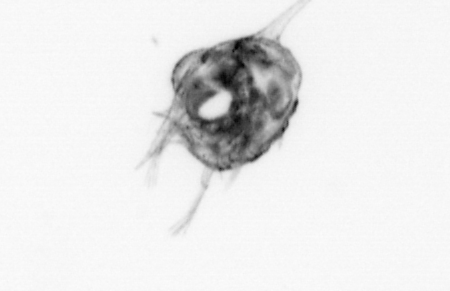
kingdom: Animalia
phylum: Arthropoda
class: Malacostraca
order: Decapoda
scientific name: Decapoda
